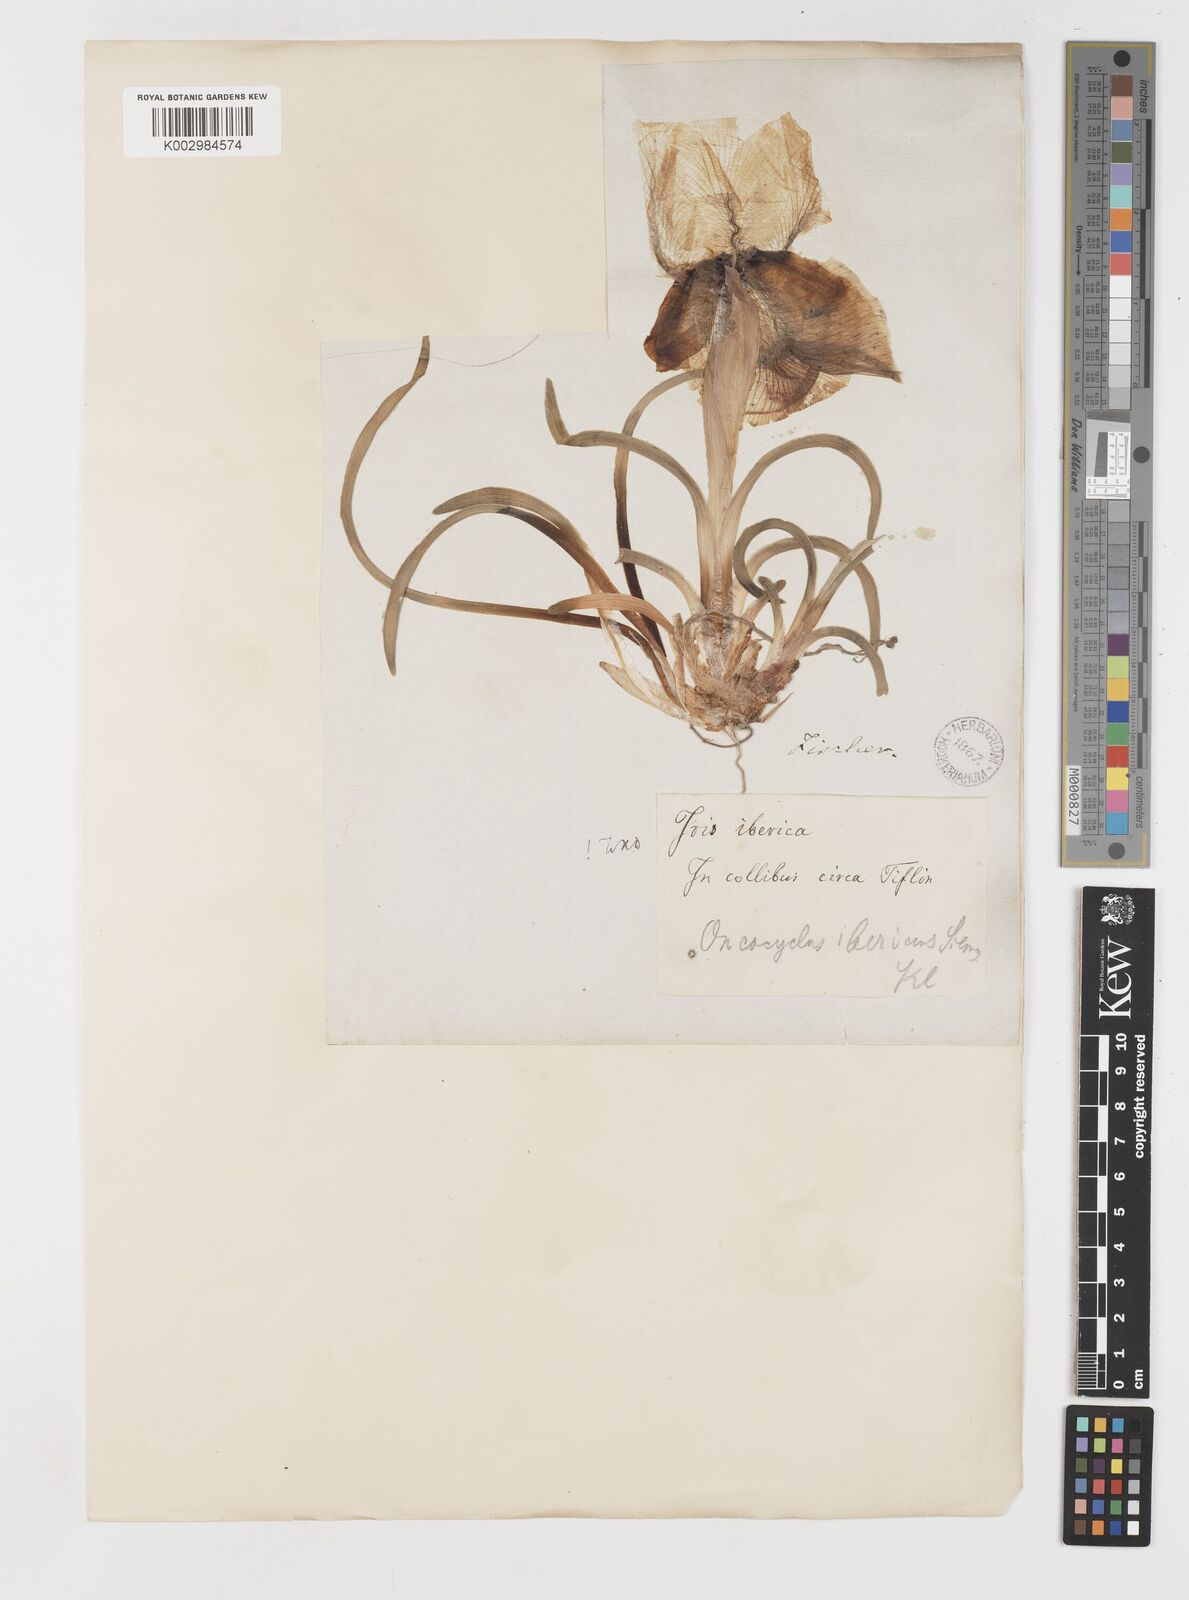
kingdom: Plantae
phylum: Tracheophyta
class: Liliopsida
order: Asparagales
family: Iridaceae
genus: Iris
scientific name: Iris iberica
